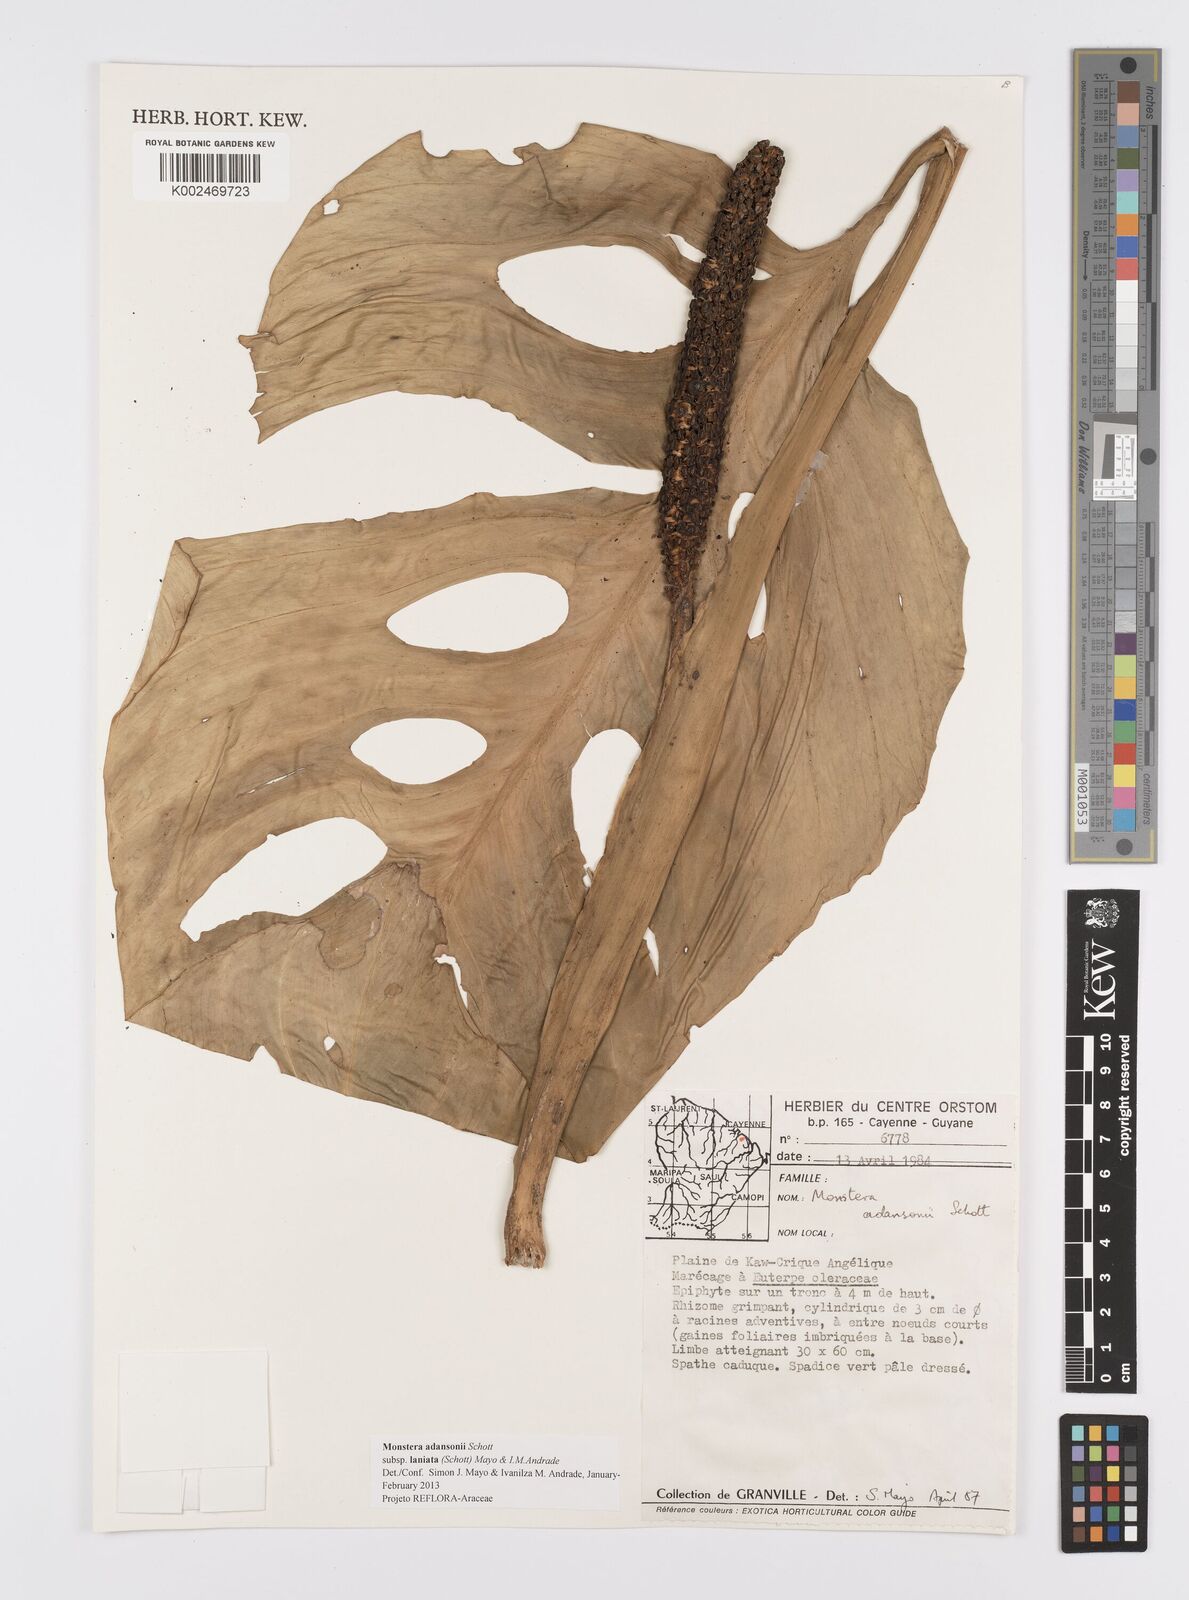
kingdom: Plantae
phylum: Tracheophyta
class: Liliopsida
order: Alismatales
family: Araceae
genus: Monstera
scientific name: Monstera adansonii
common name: Tarovine
